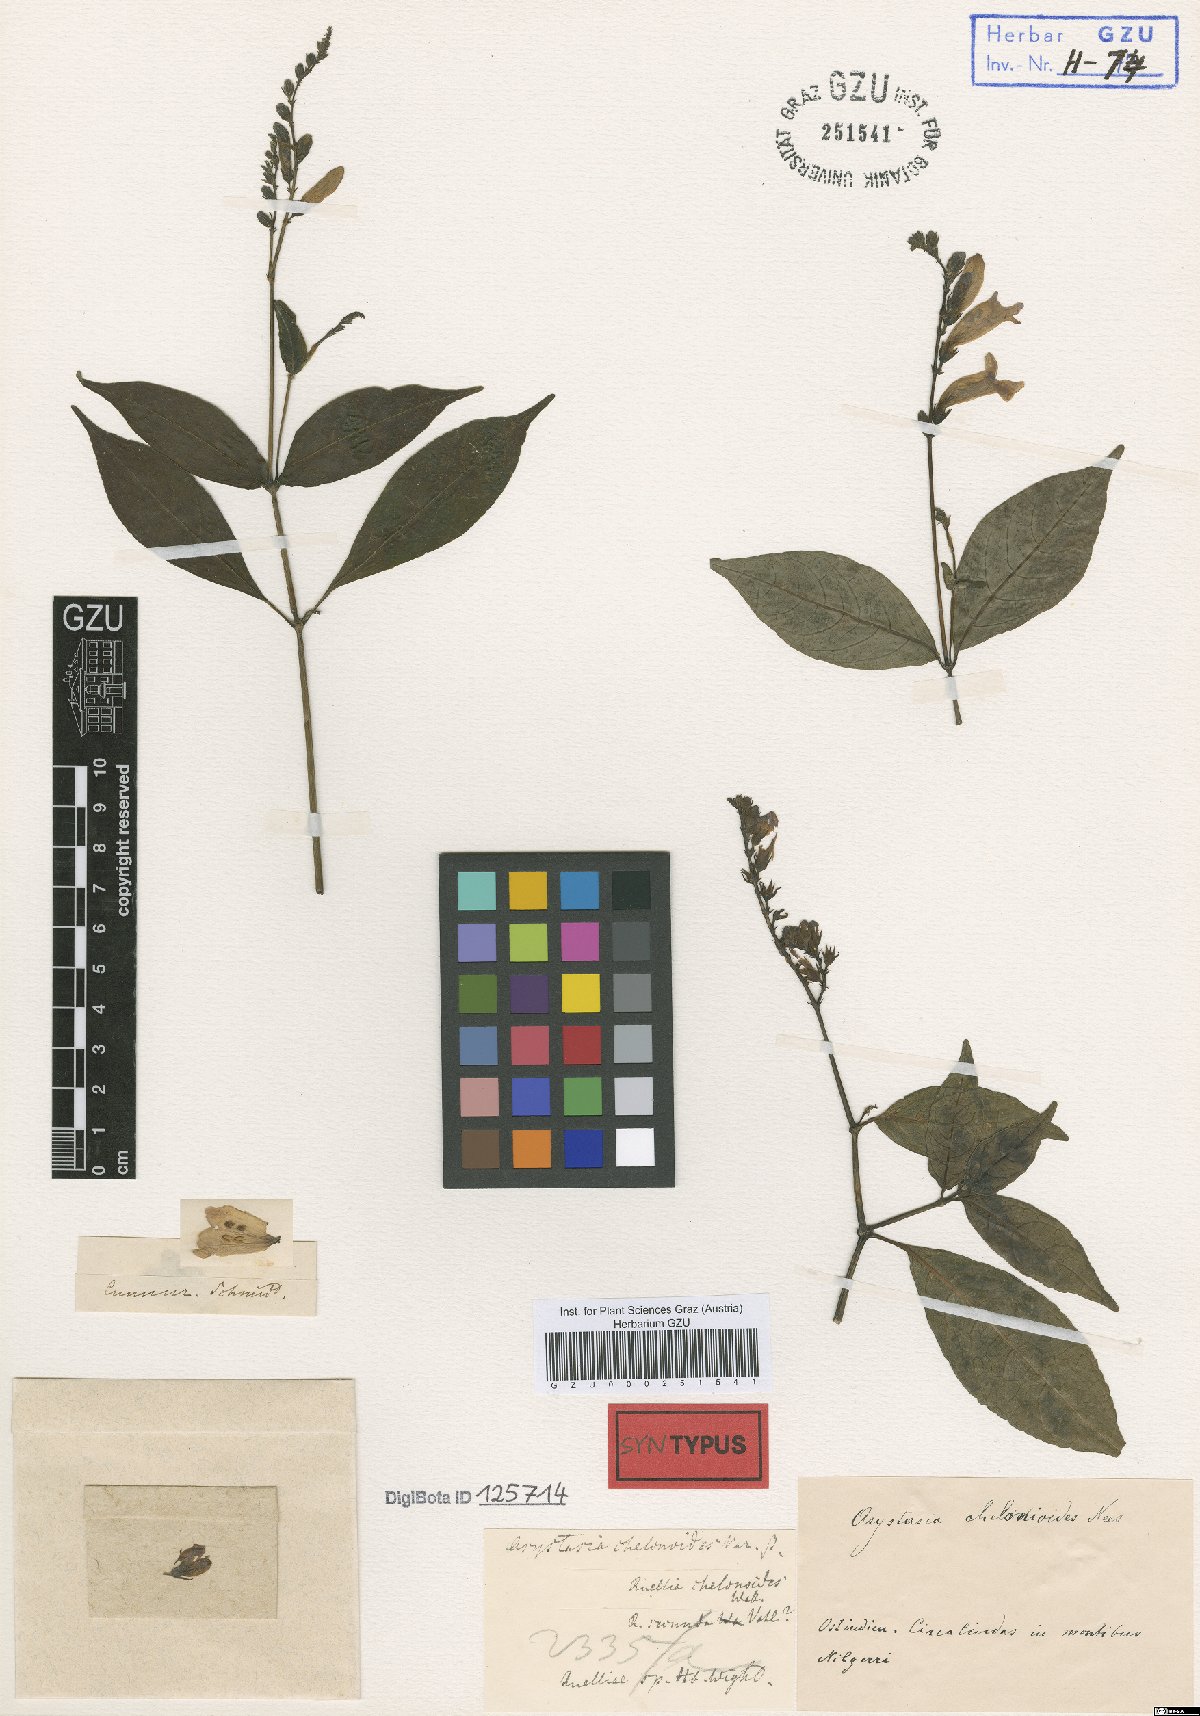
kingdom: Plantae
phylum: Tracheophyta
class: Magnoliopsida
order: Lamiales
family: Acanthaceae
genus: Asystasia
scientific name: Asystasia chelonoides
